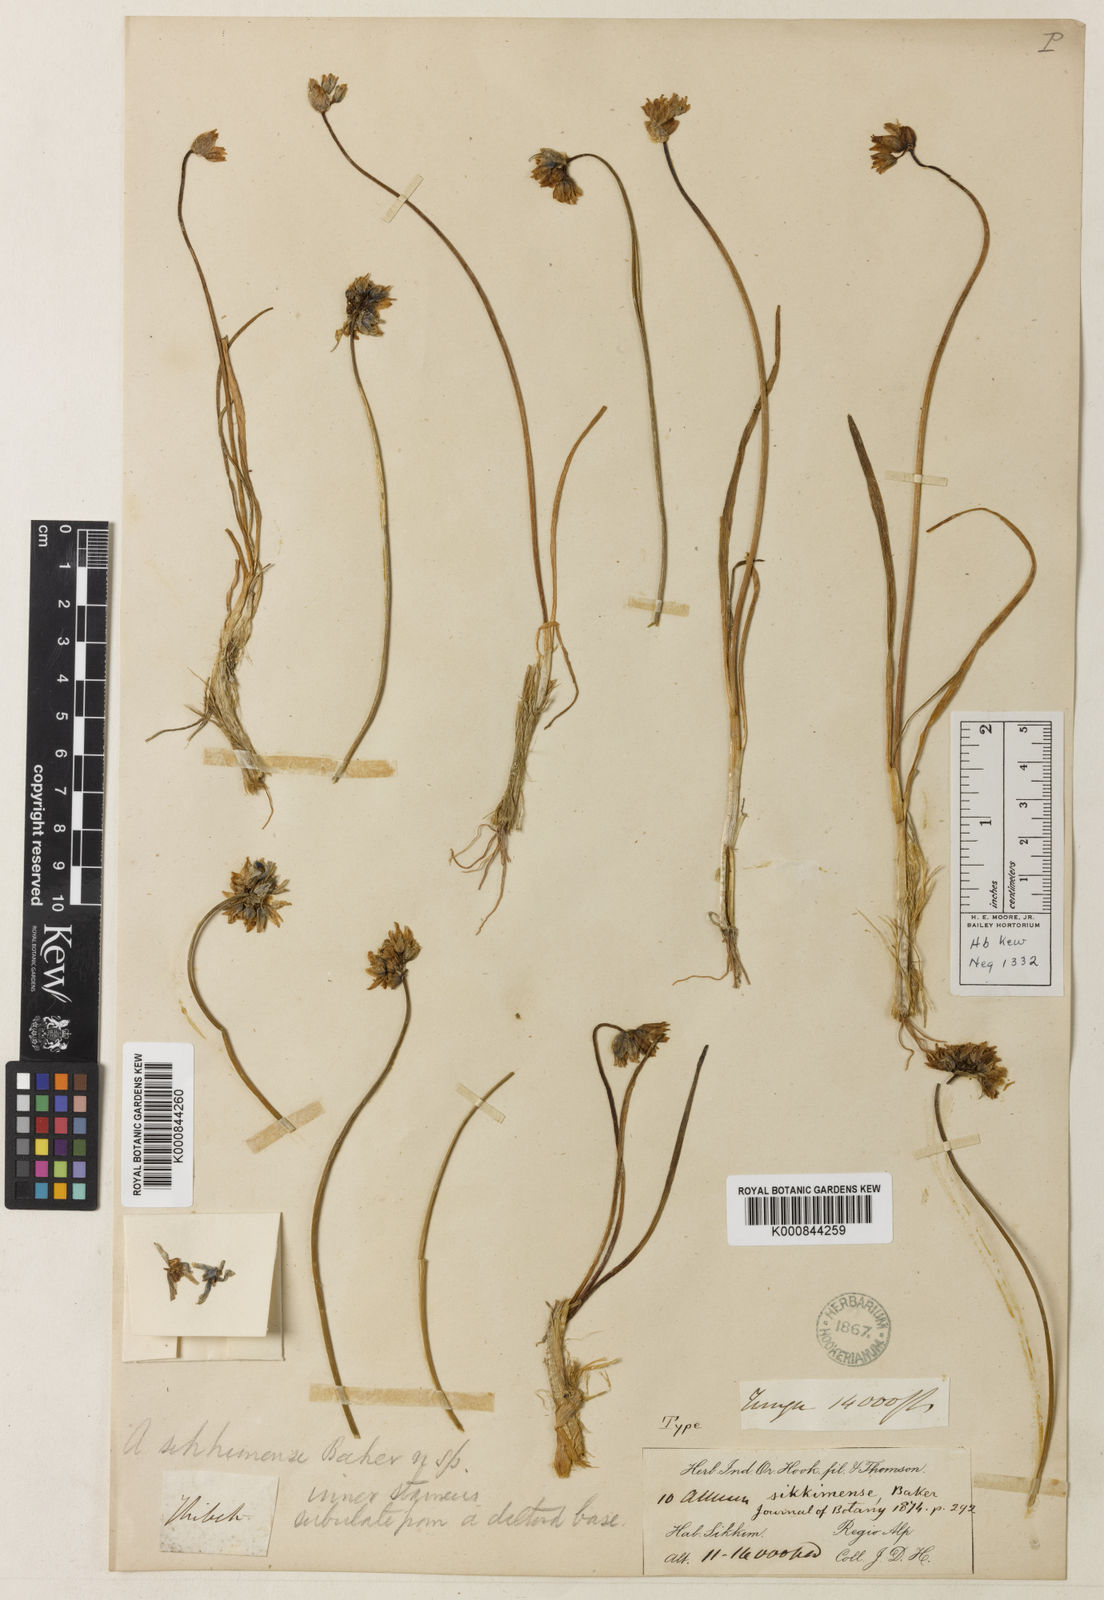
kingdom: Plantae
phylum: Tracheophyta
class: Liliopsida
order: Asparagales
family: Amaryllidaceae
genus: Allium
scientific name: Allium sikkimense
